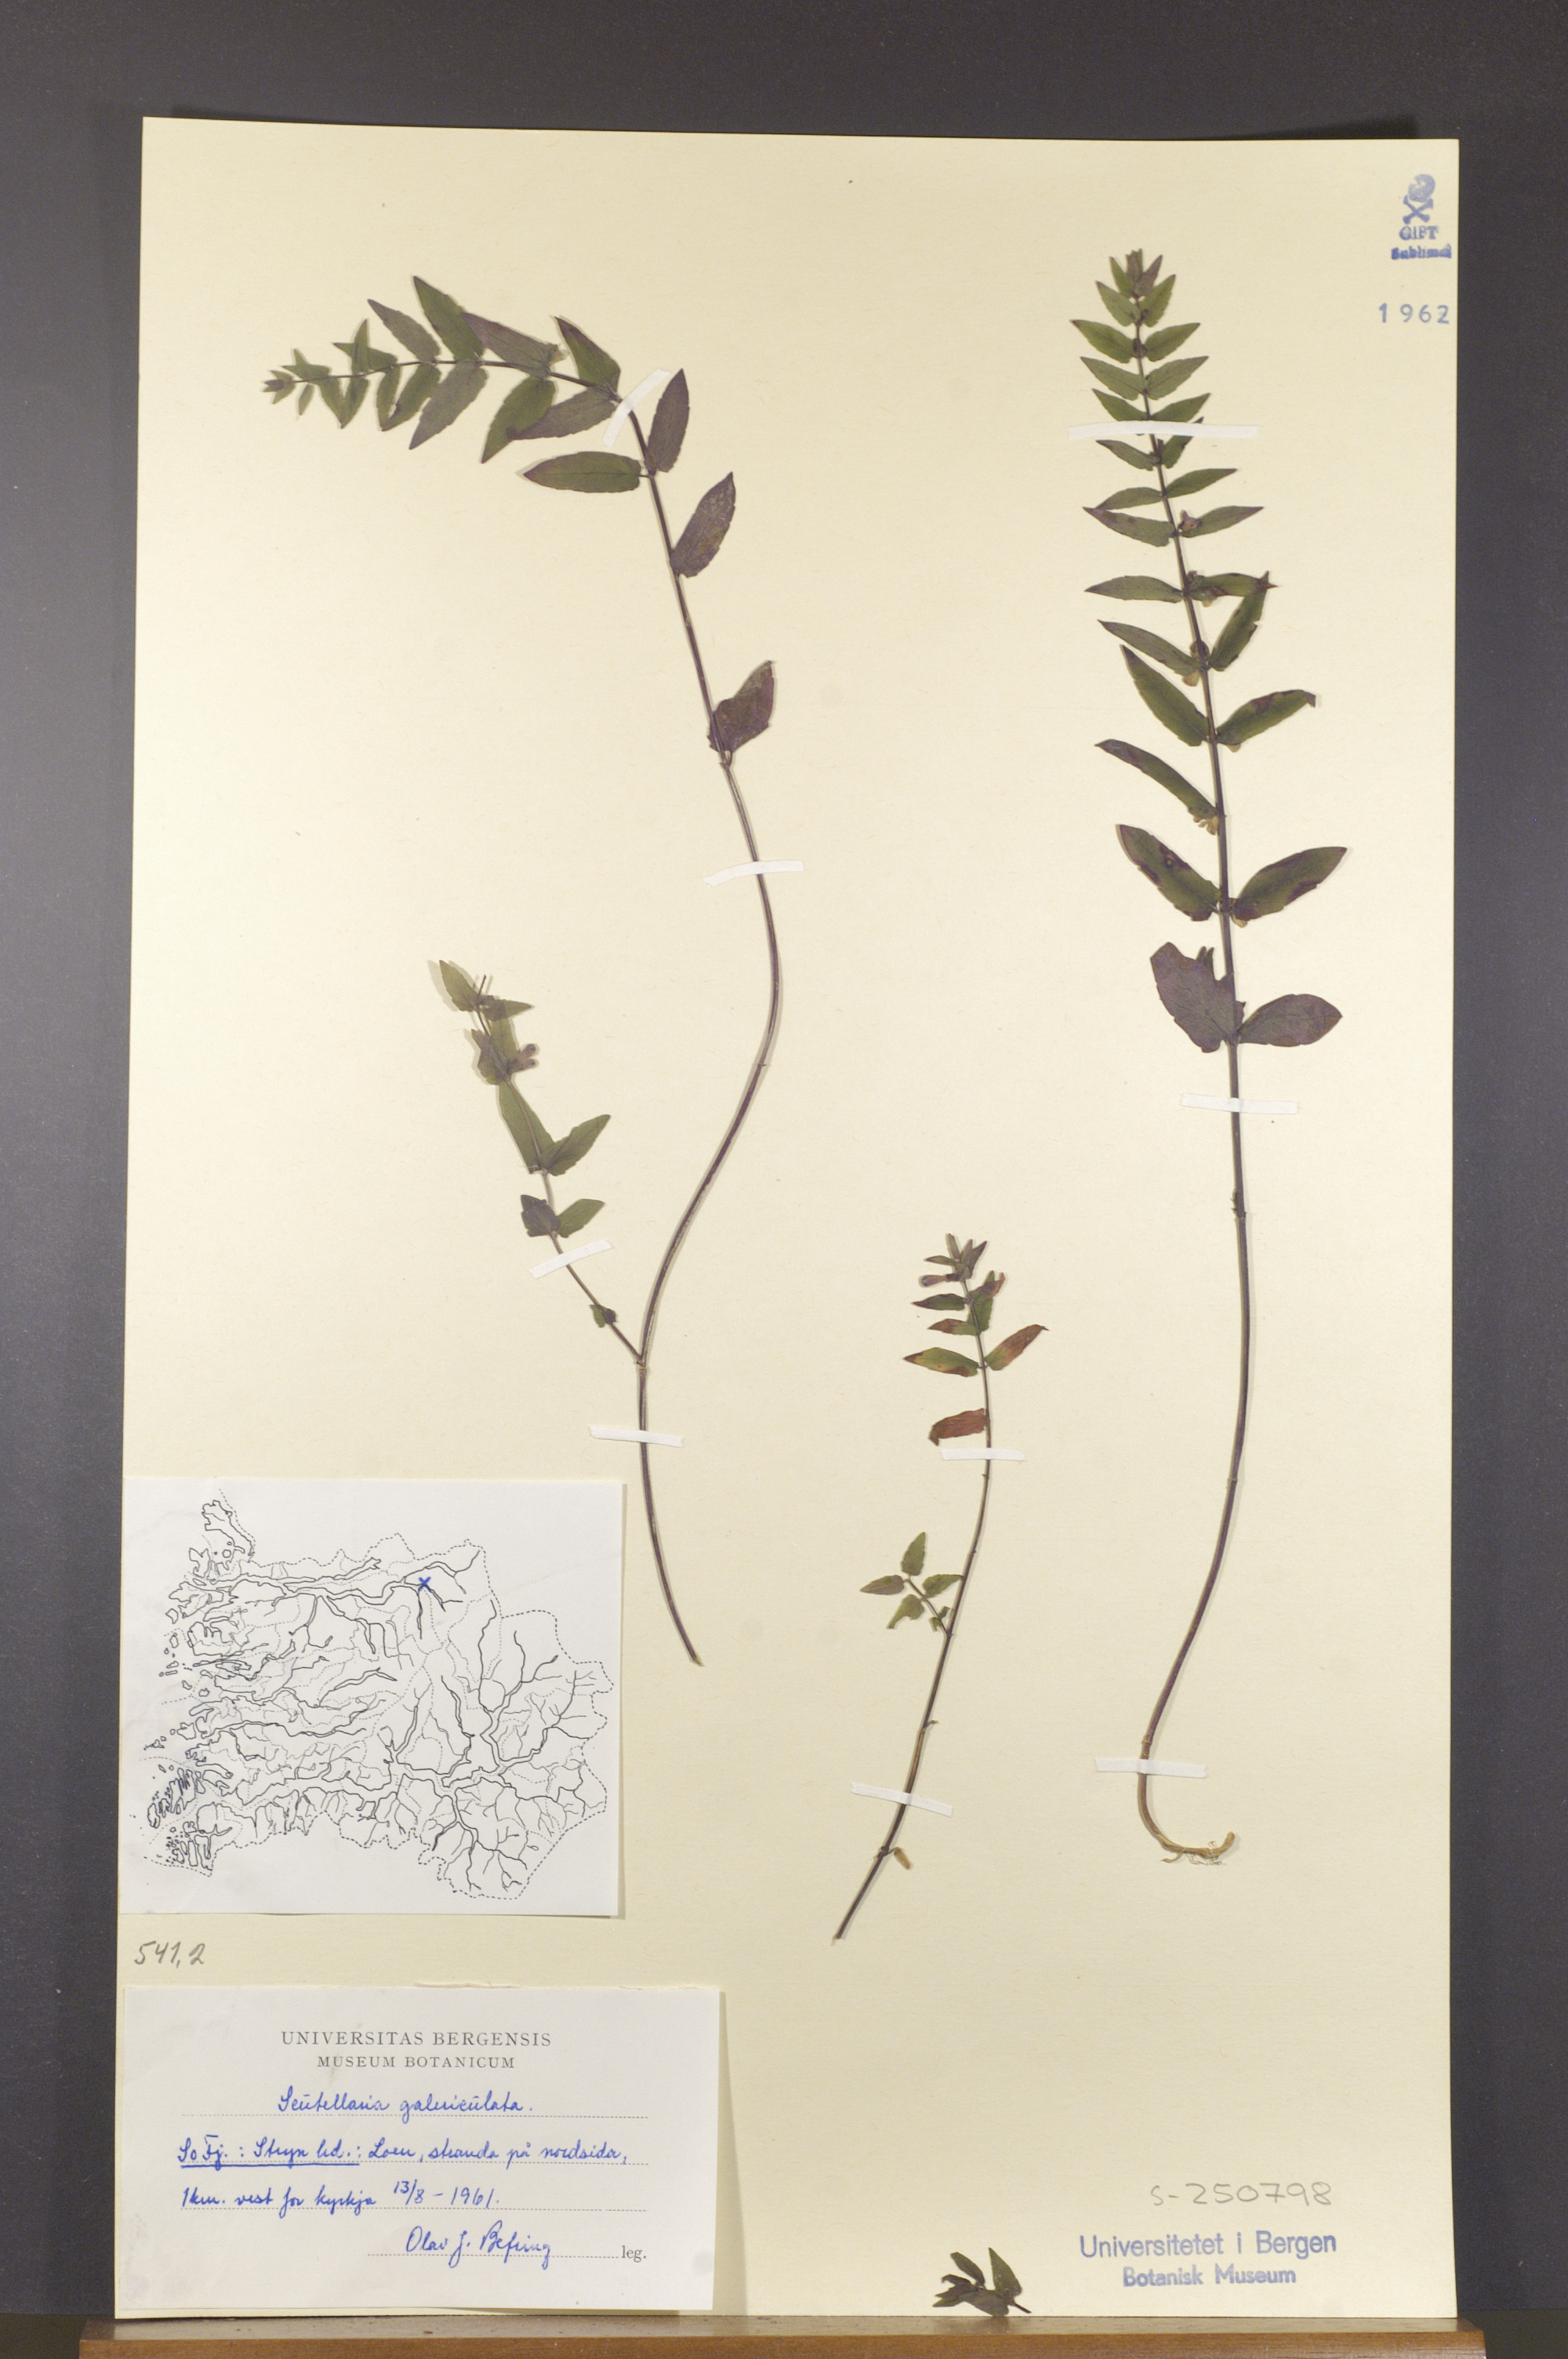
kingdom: Plantae
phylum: Tracheophyta
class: Magnoliopsida
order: Lamiales
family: Lamiaceae
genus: Scutellaria
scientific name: Scutellaria galericulata
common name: Skullcap
